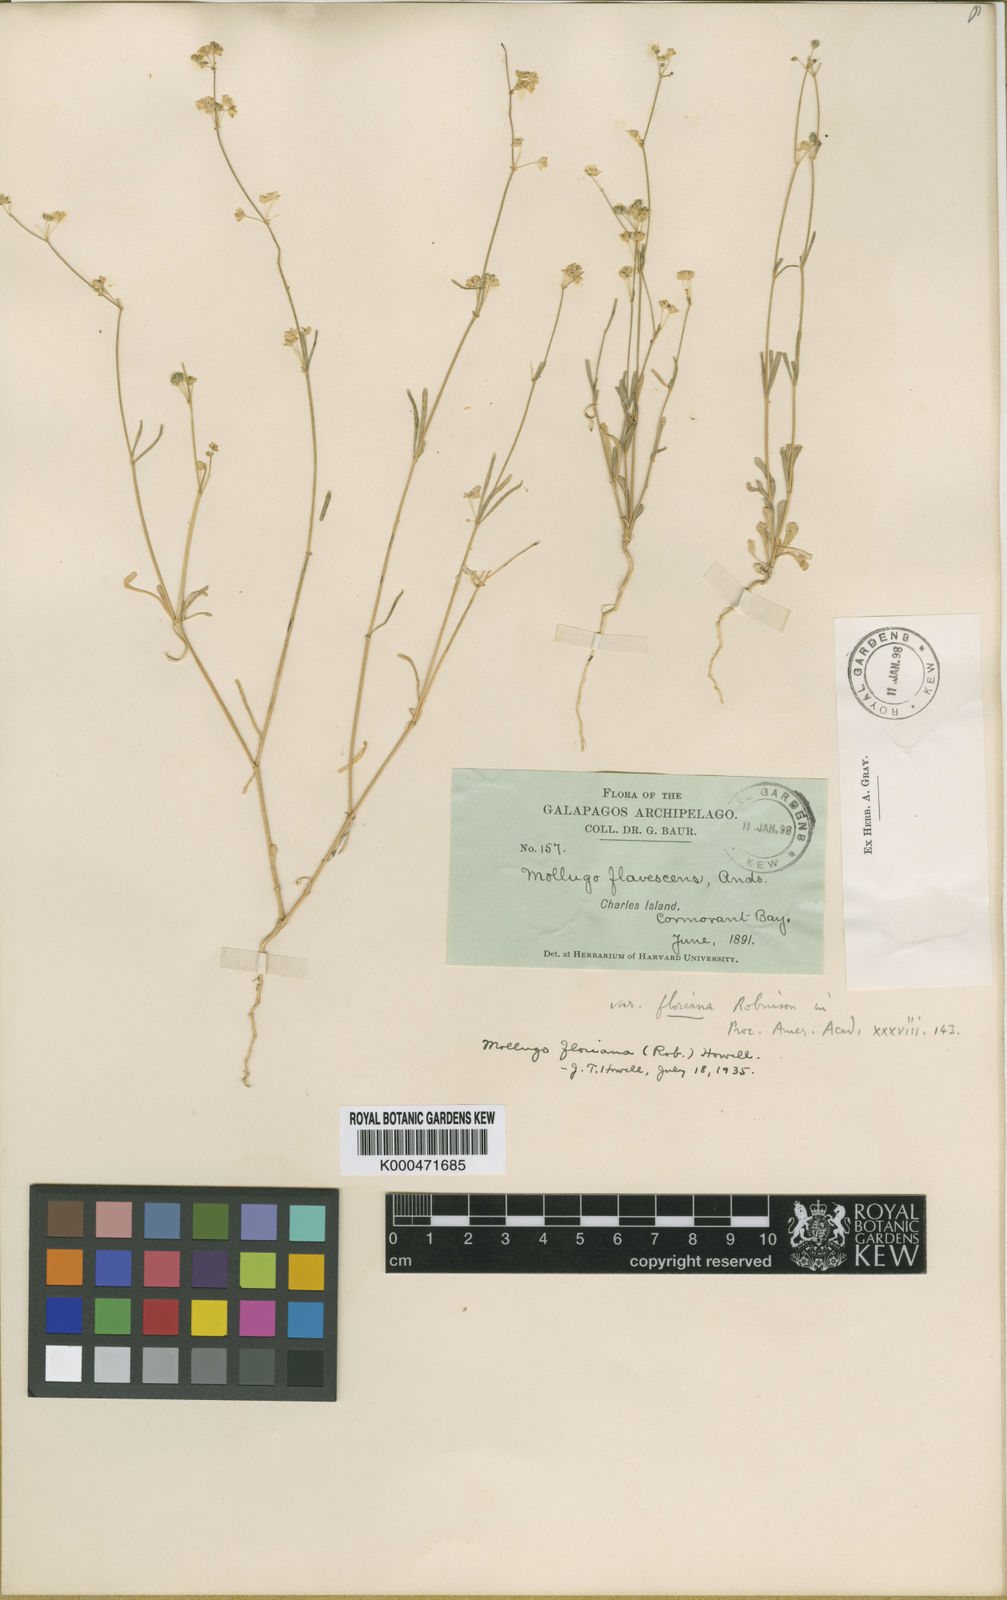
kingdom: Plantae
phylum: Tracheophyta
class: Magnoliopsida
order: Caryophyllales
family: Molluginaceae
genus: Mollugo
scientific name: Mollugo floriana
